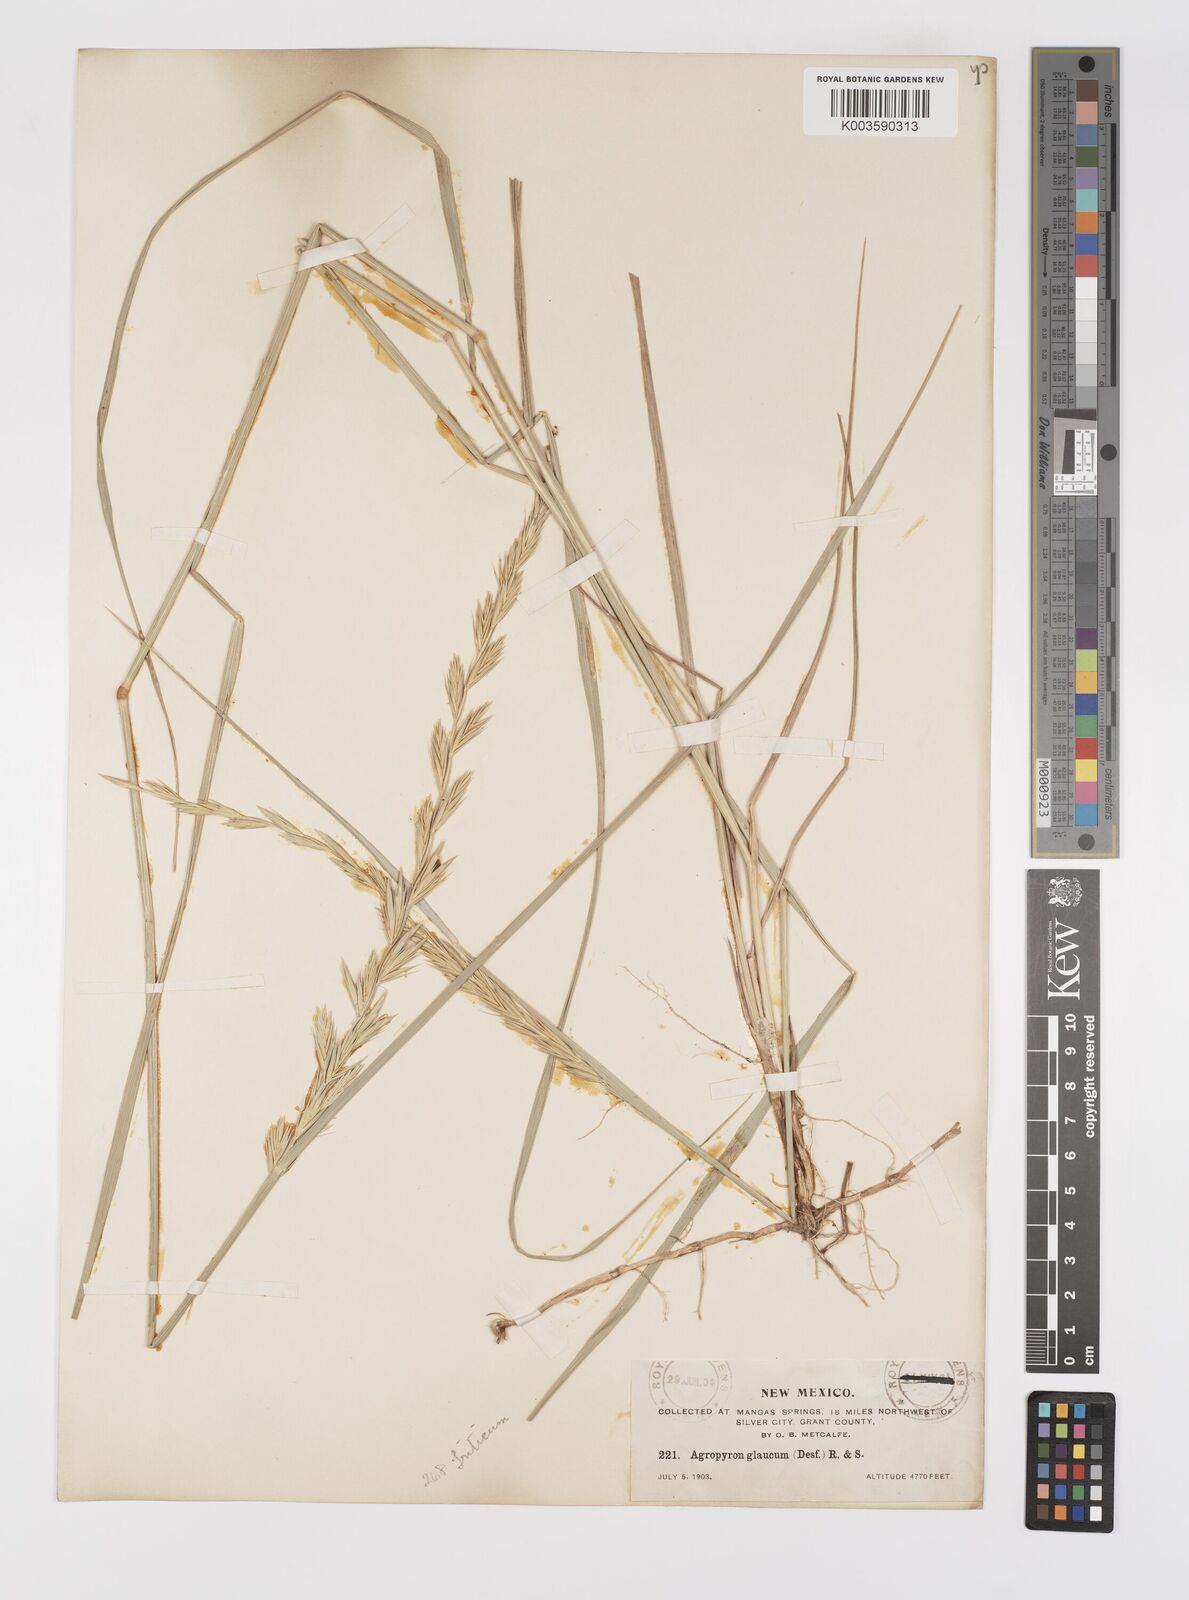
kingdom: Plantae
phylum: Tracheophyta
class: Liliopsida
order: Poales
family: Poaceae
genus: Elymus
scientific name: Elymus
